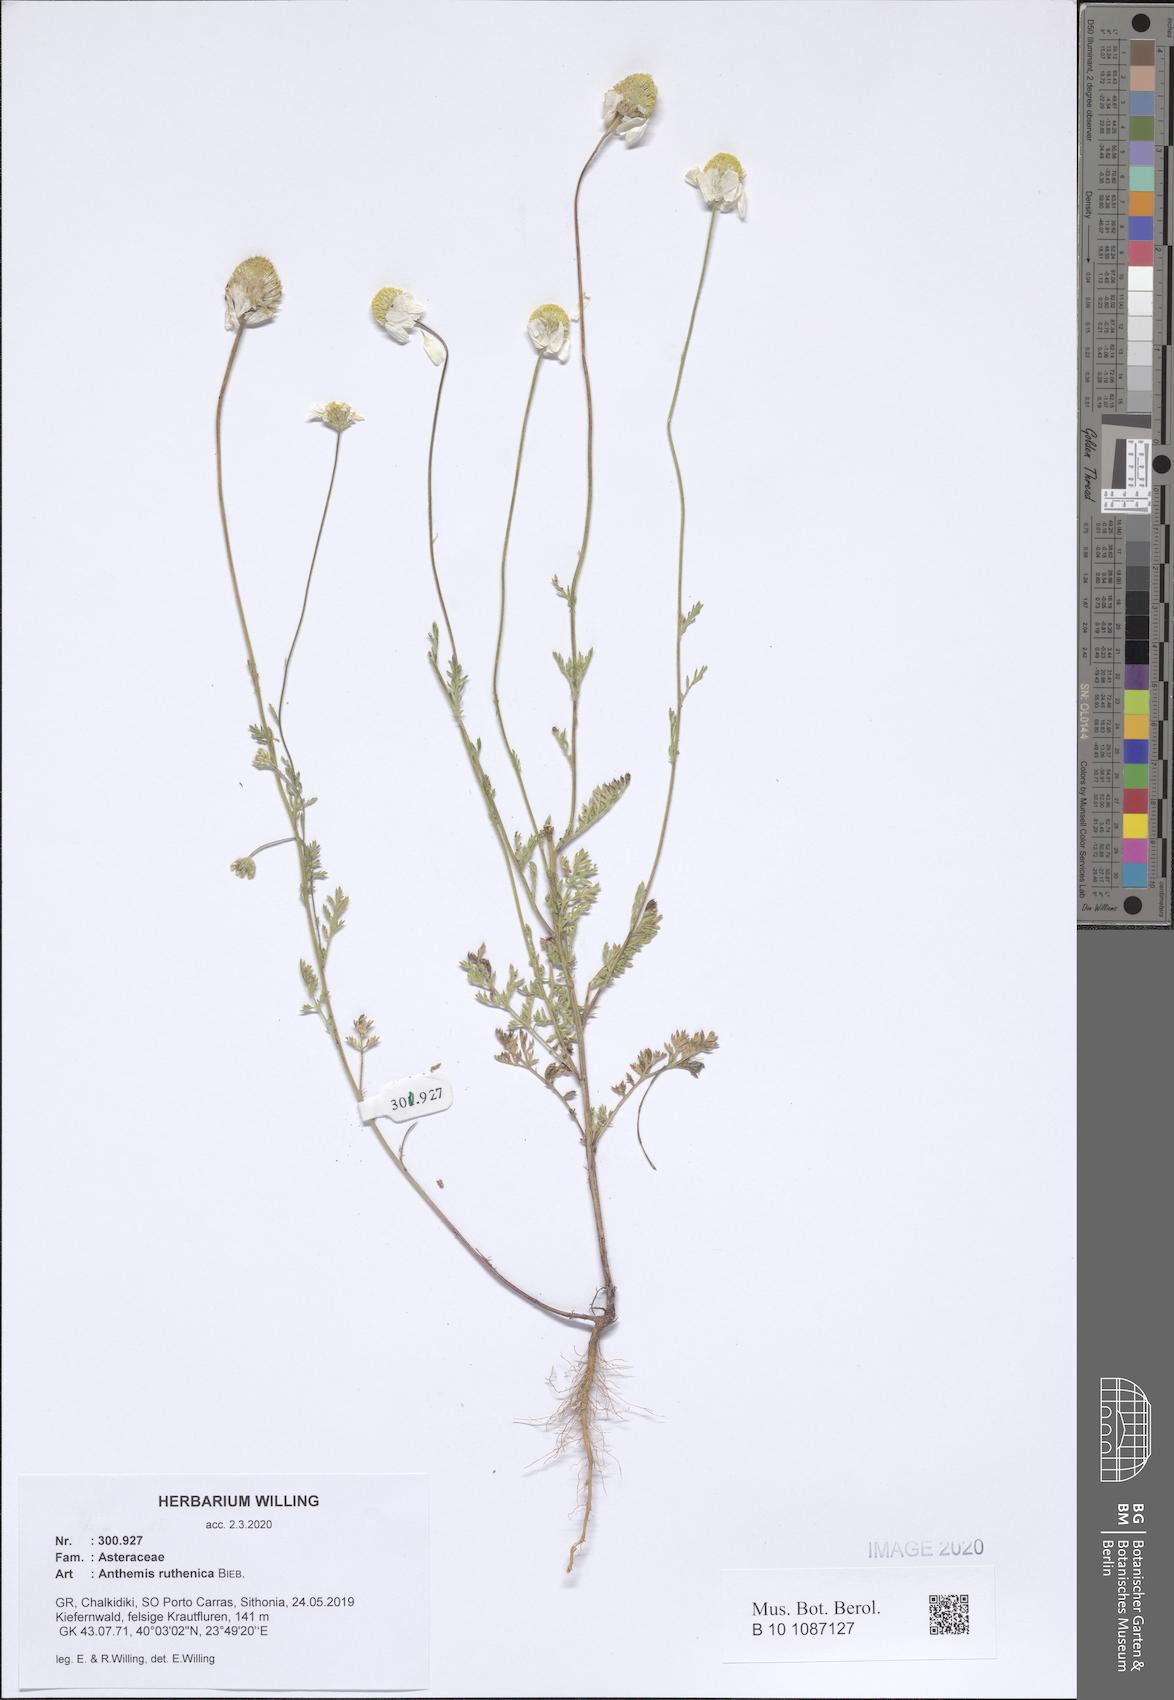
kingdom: Plantae
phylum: Tracheophyta
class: Magnoliopsida
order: Asterales
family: Asteraceae
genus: Anthemis
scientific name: Anthemis ruthenica
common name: Eastern chamomile
